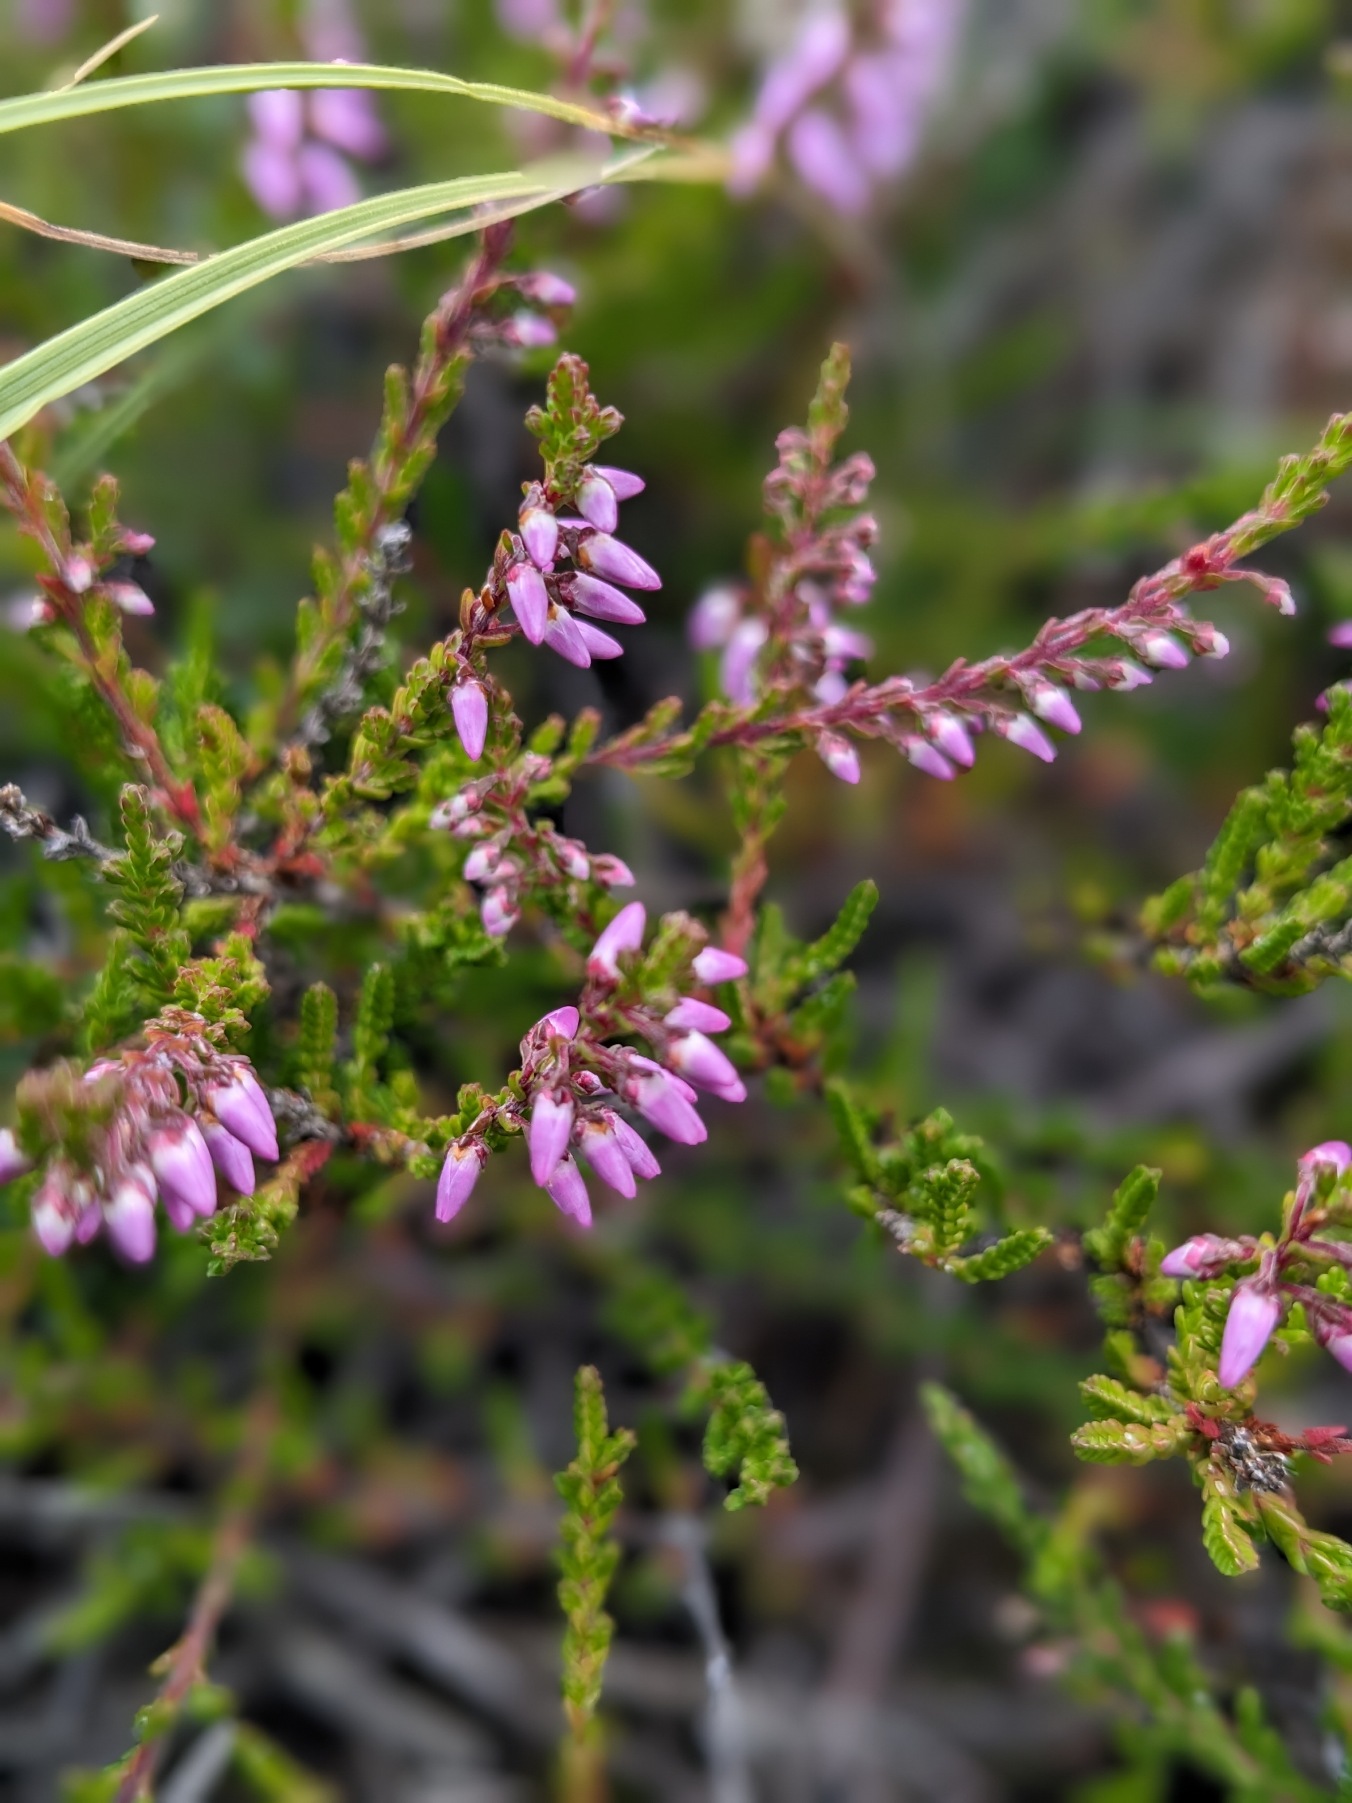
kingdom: Plantae
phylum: Tracheophyta
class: Magnoliopsida
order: Ericales
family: Ericaceae
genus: Calluna
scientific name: Calluna vulgaris
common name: Hedelyng
